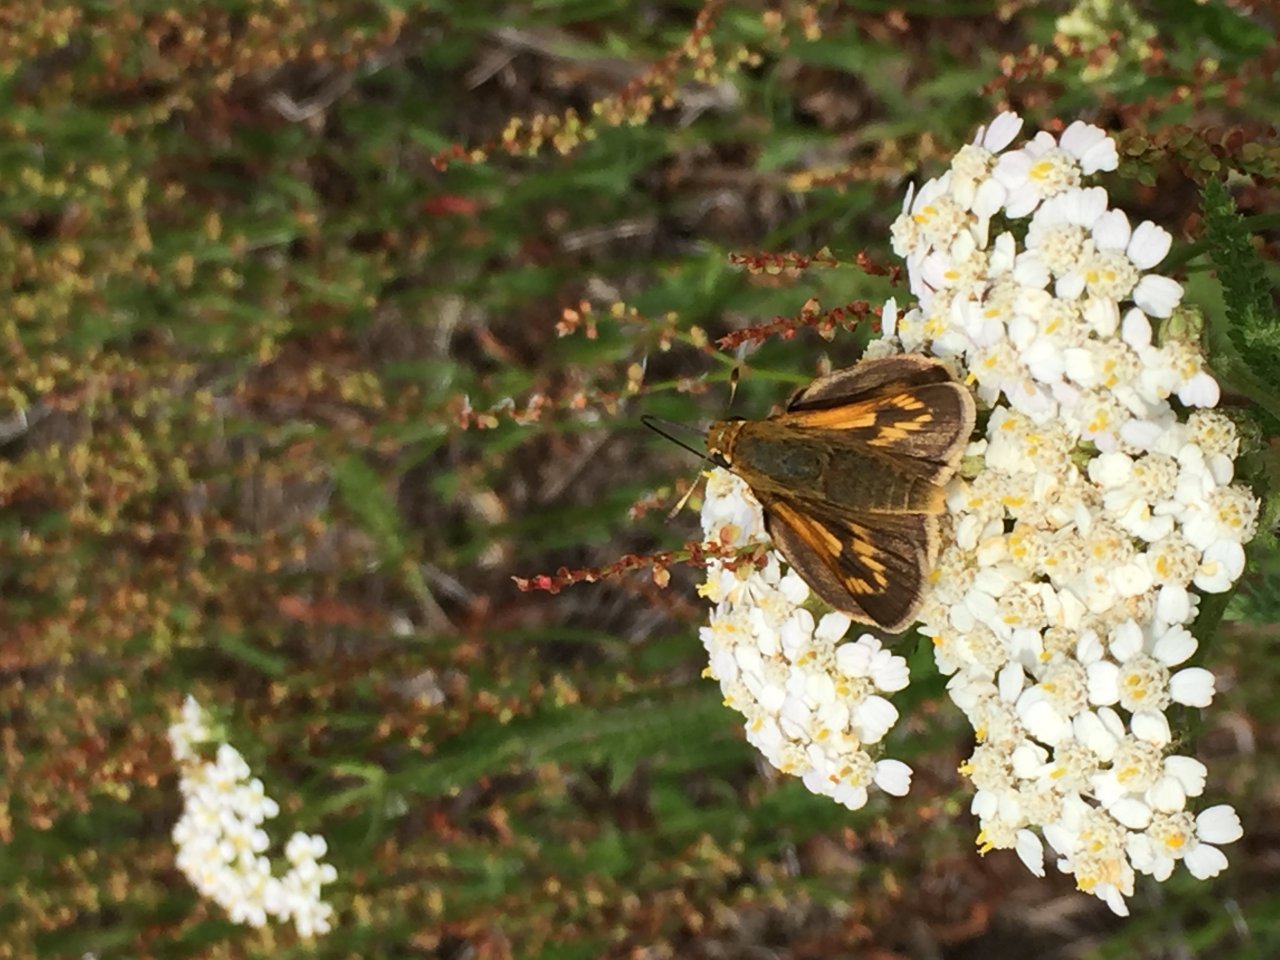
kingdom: Animalia
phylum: Arthropoda
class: Insecta
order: Lepidoptera
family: Hesperiidae
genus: Polites
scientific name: Polites coras
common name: Peck's Skipper
